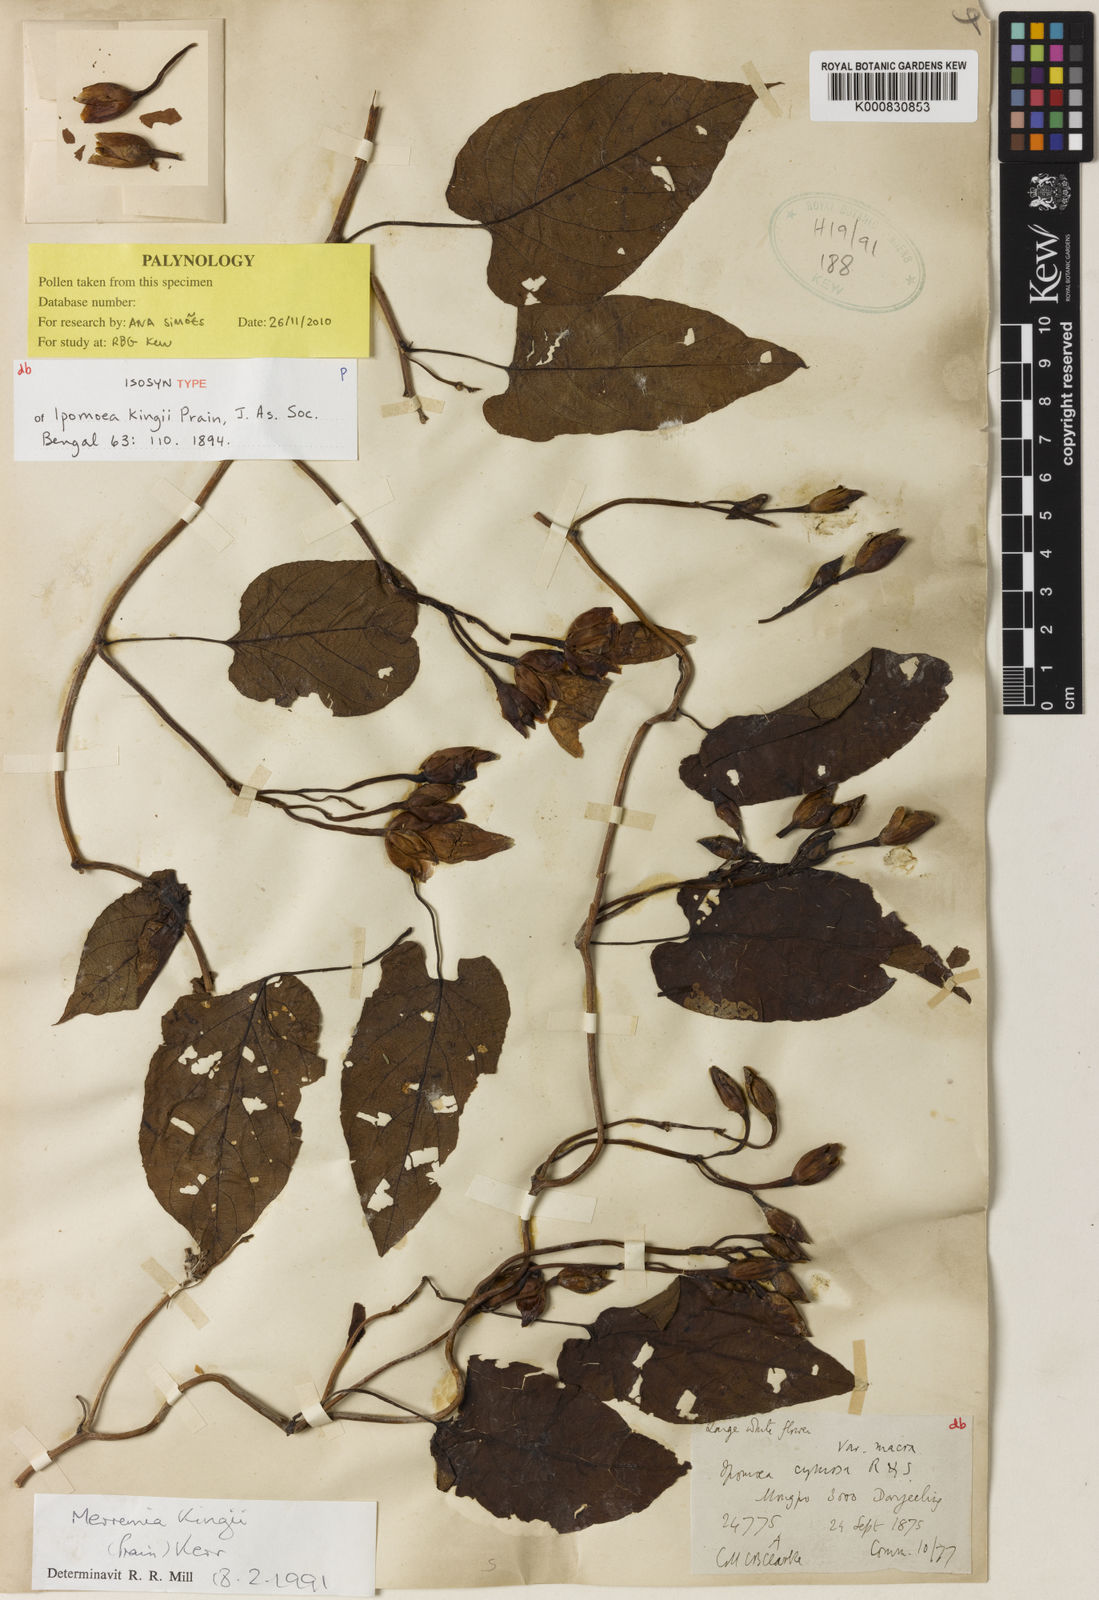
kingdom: Plantae
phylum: Tracheophyta
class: Magnoliopsida
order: Solanales
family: Convolvulaceae
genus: Camonea
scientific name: Camonea
